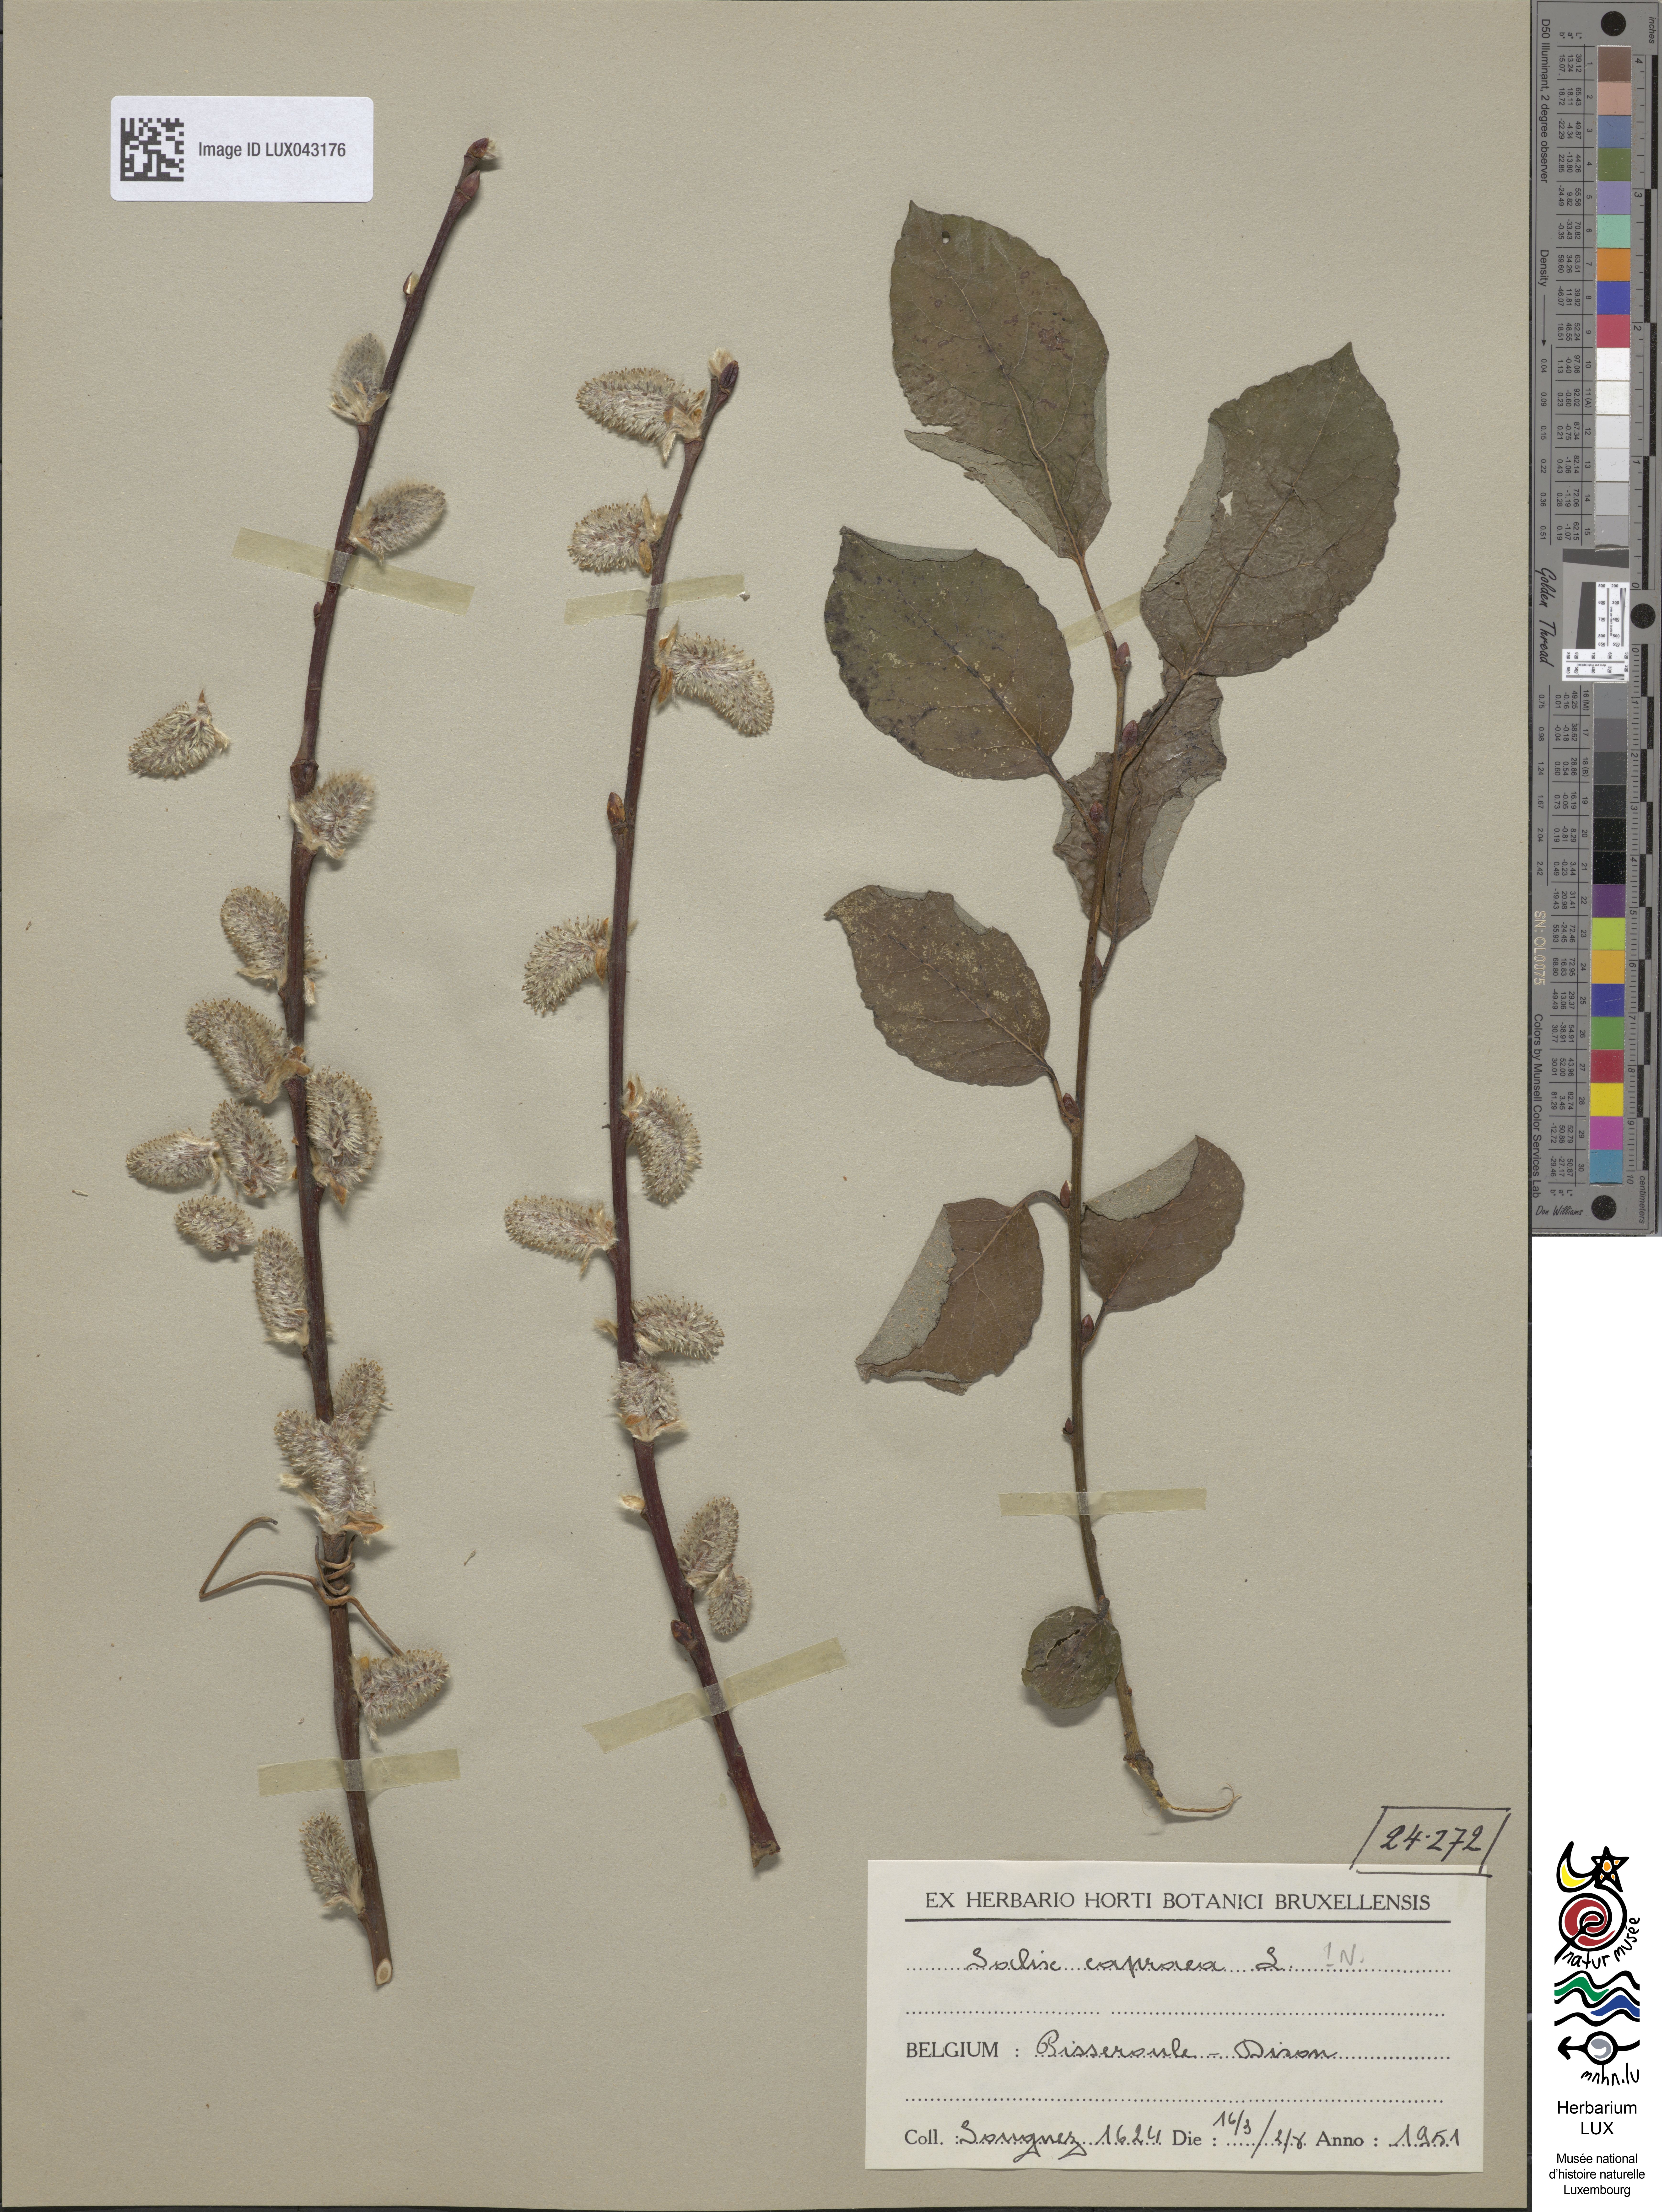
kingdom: Plantae
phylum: Tracheophyta
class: Magnoliopsida
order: Malpighiales
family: Salicaceae
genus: Salix
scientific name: Salix caprea
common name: Goat willow
